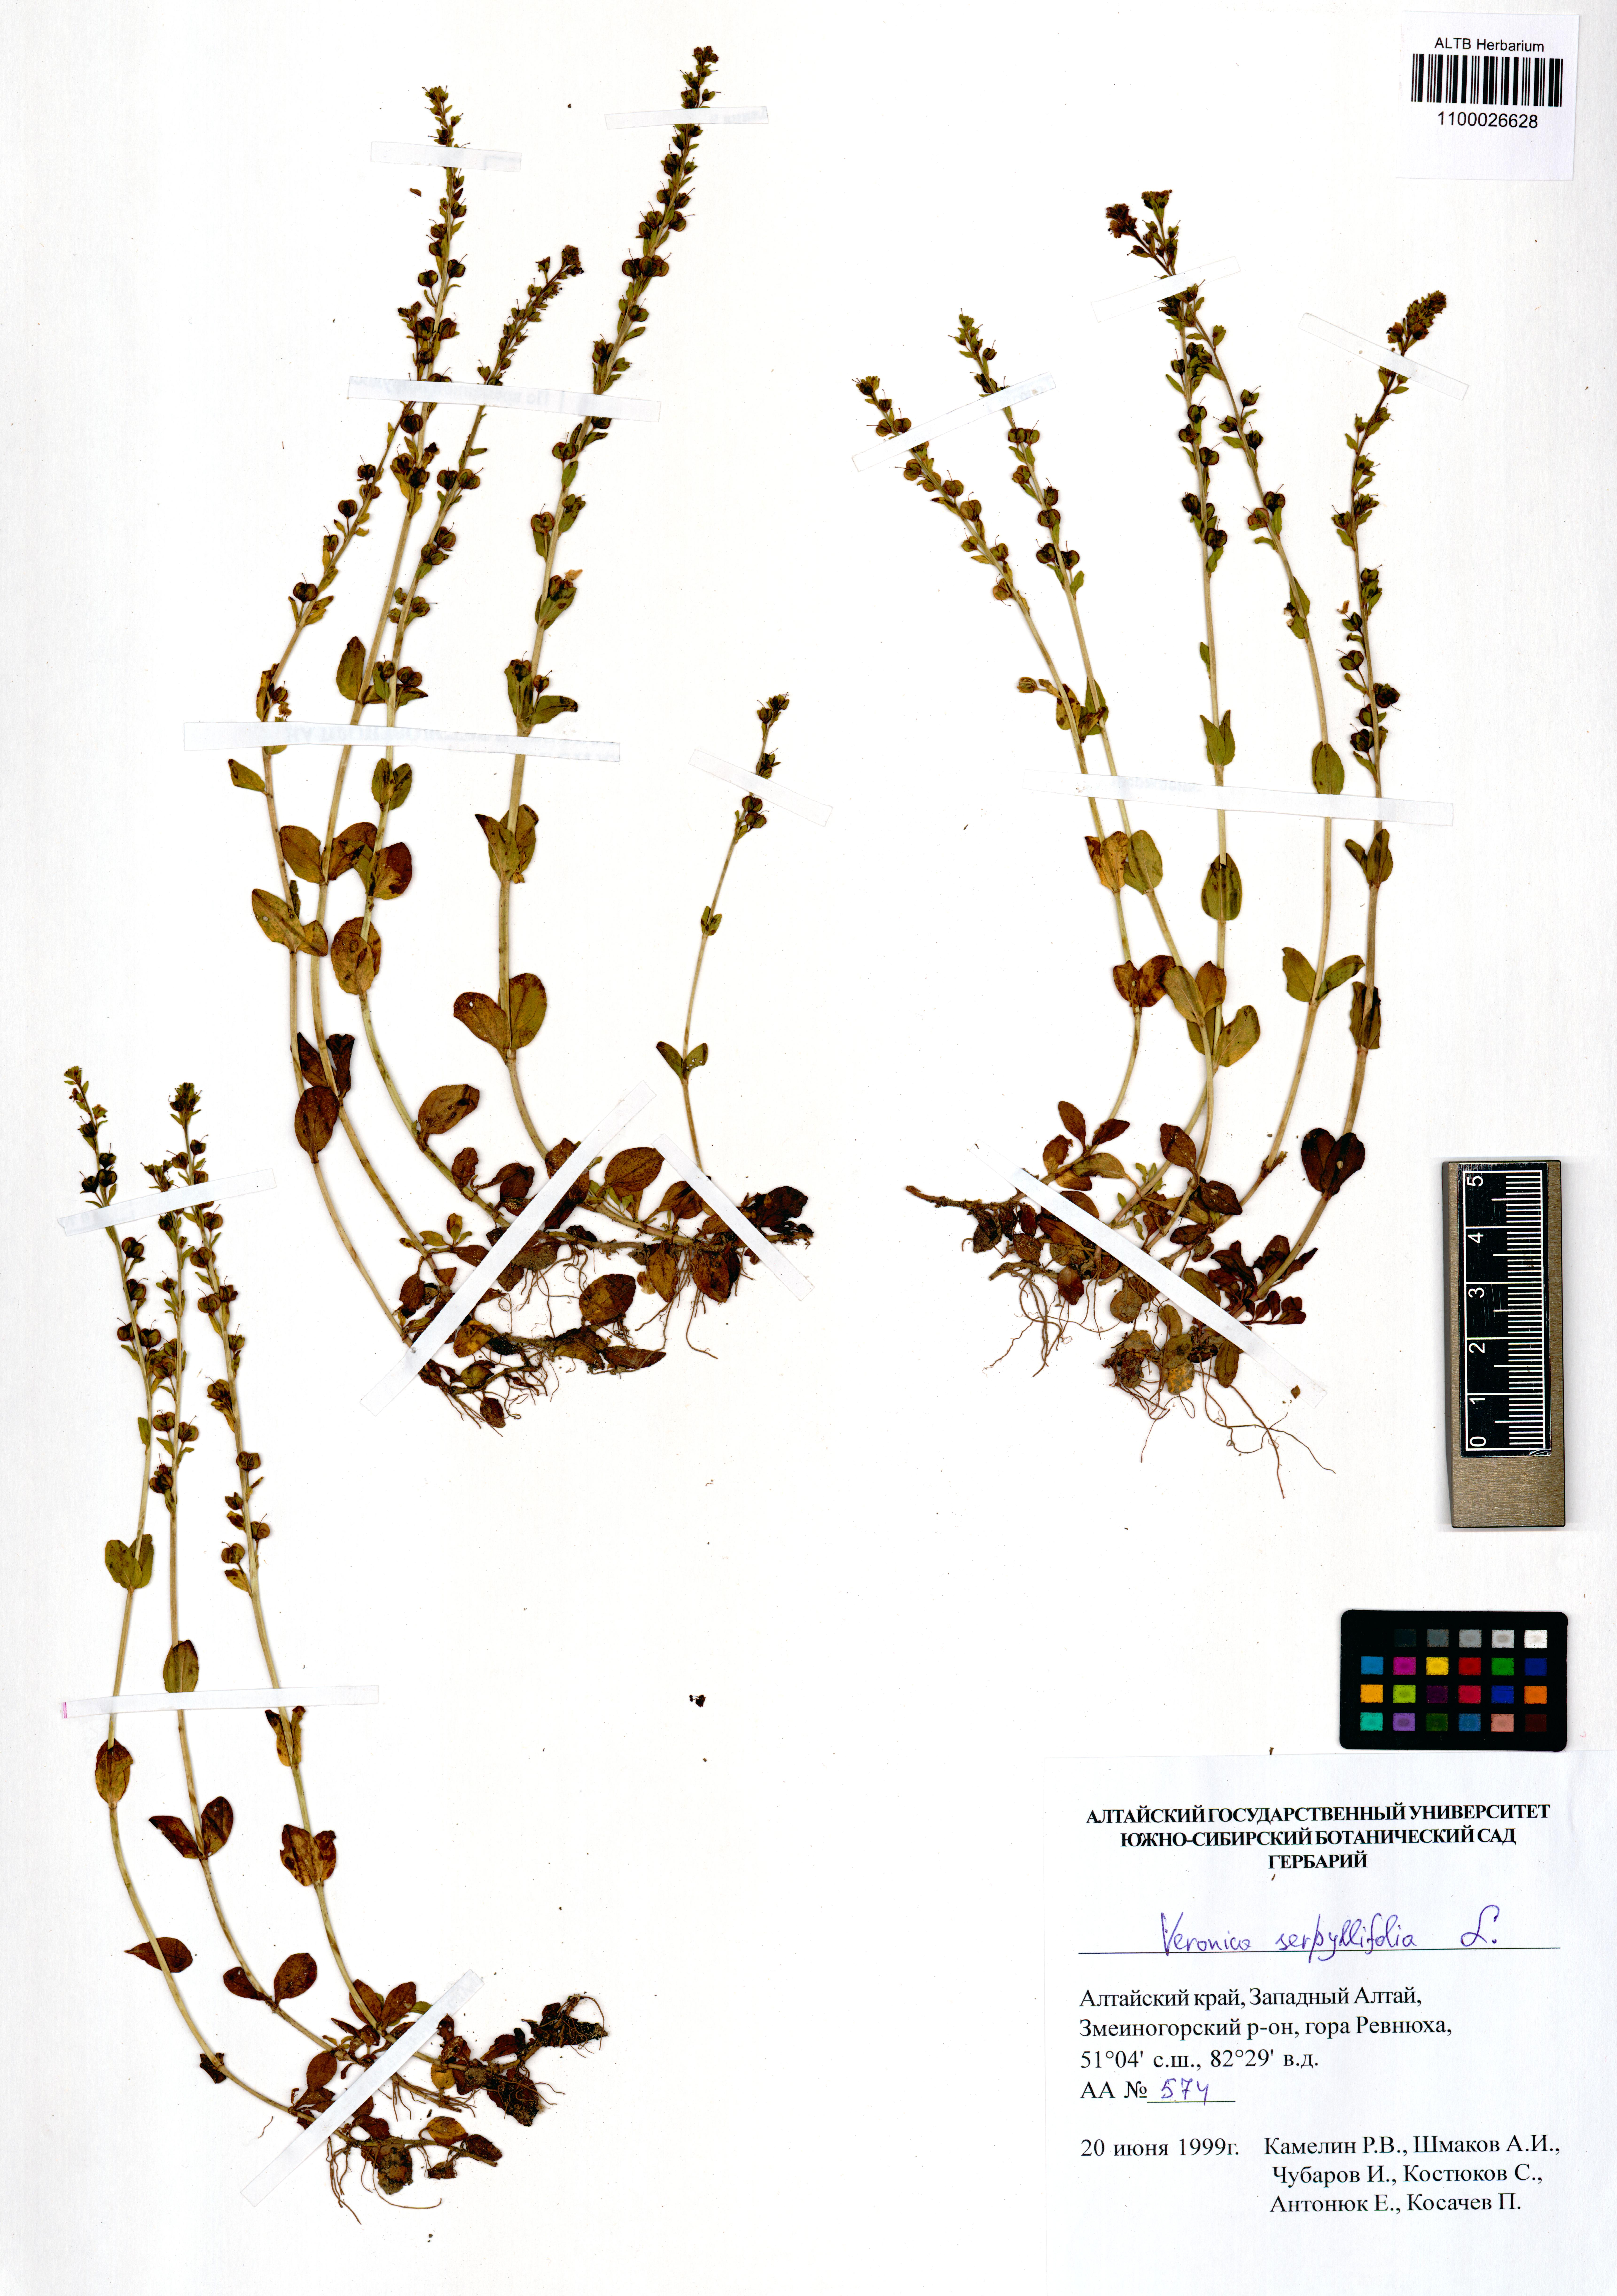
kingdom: Plantae
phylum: Tracheophyta
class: Magnoliopsida
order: Lamiales
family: Plantaginaceae
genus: Veronica
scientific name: Veronica serpyllifolia
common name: Thyme-leaved speedwell
